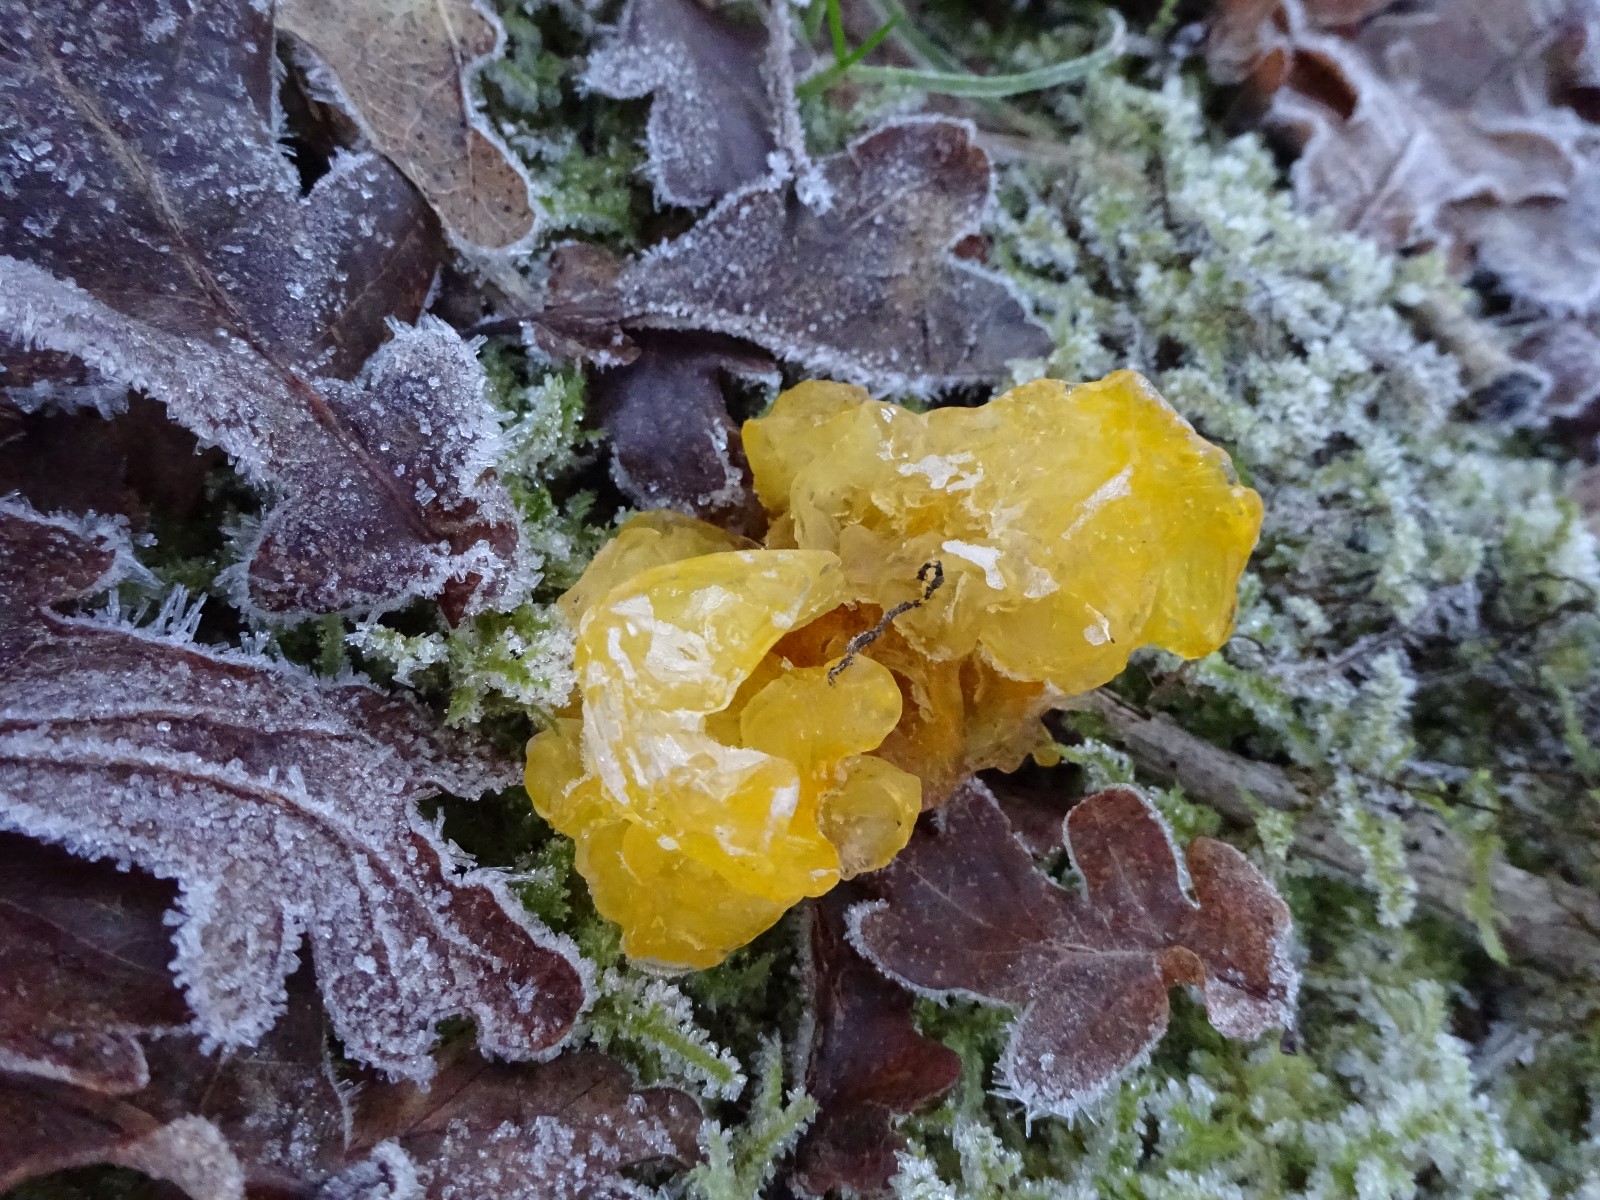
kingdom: Fungi
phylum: Basidiomycota
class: Tremellomycetes
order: Tremellales
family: Tremellaceae
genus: Tremella
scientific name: Tremella mesenterica
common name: gul bævresvamp
